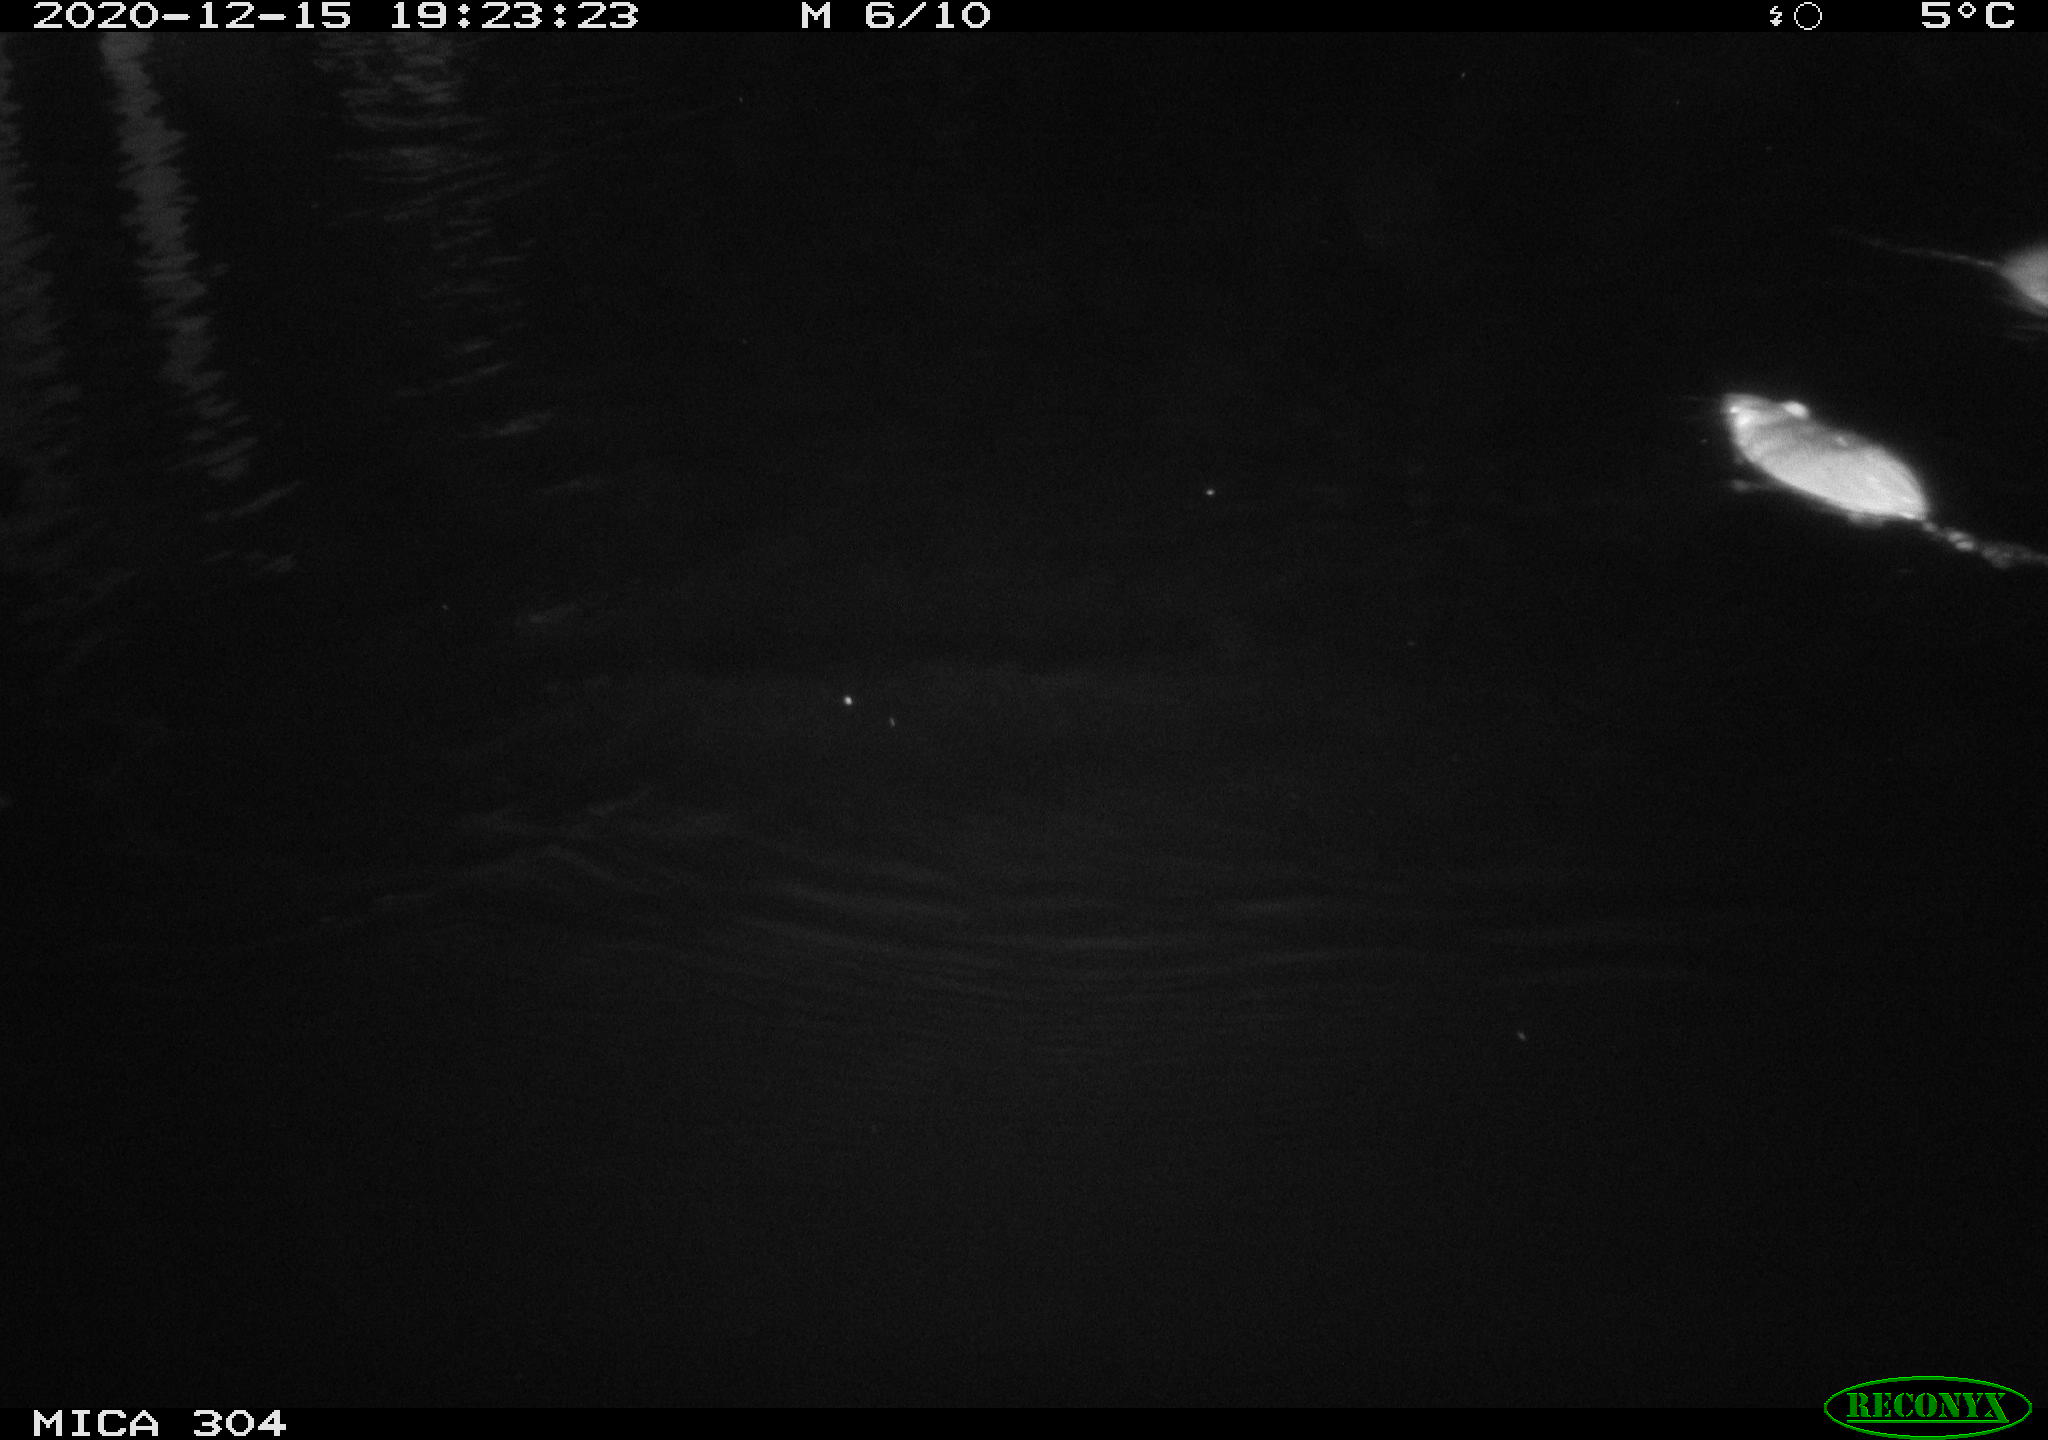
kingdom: Animalia
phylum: Chordata
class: Mammalia
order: Rodentia
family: Muridae
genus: Rattus
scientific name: Rattus norvegicus
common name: Brown rat
